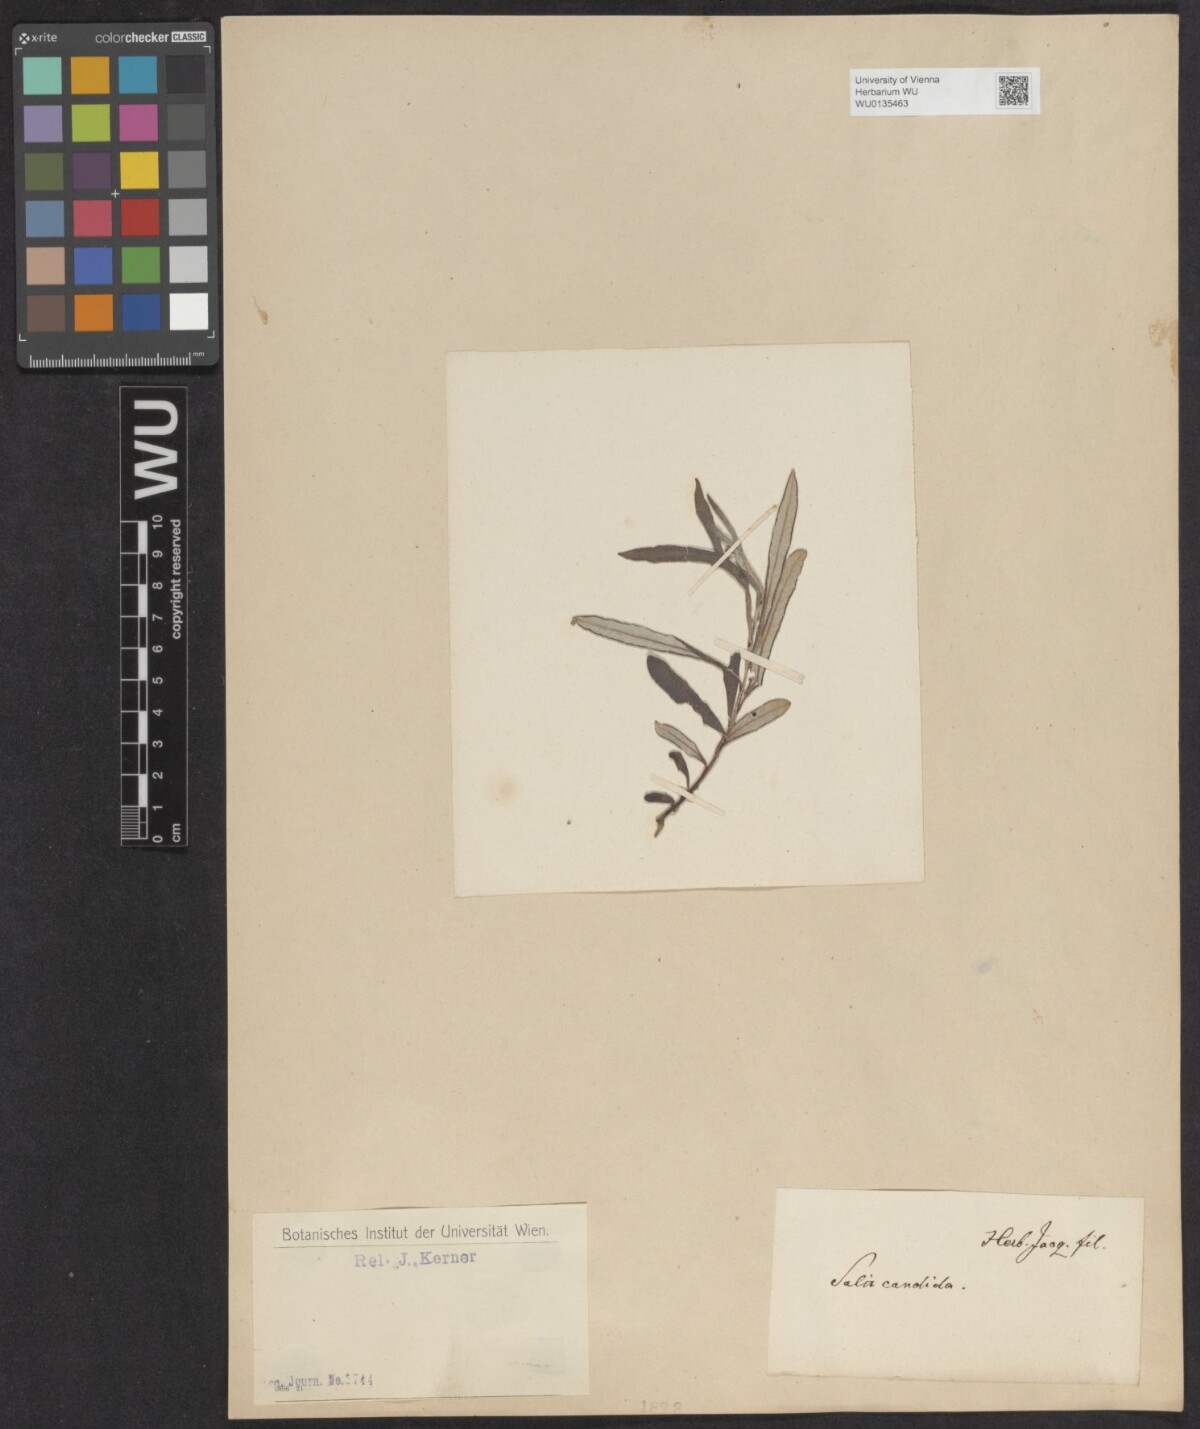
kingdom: Plantae
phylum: Tracheophyta
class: Magnoliopsida
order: Malpighiales
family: Salicaceae
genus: Salix
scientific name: Salix candida
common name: Hoary willow
